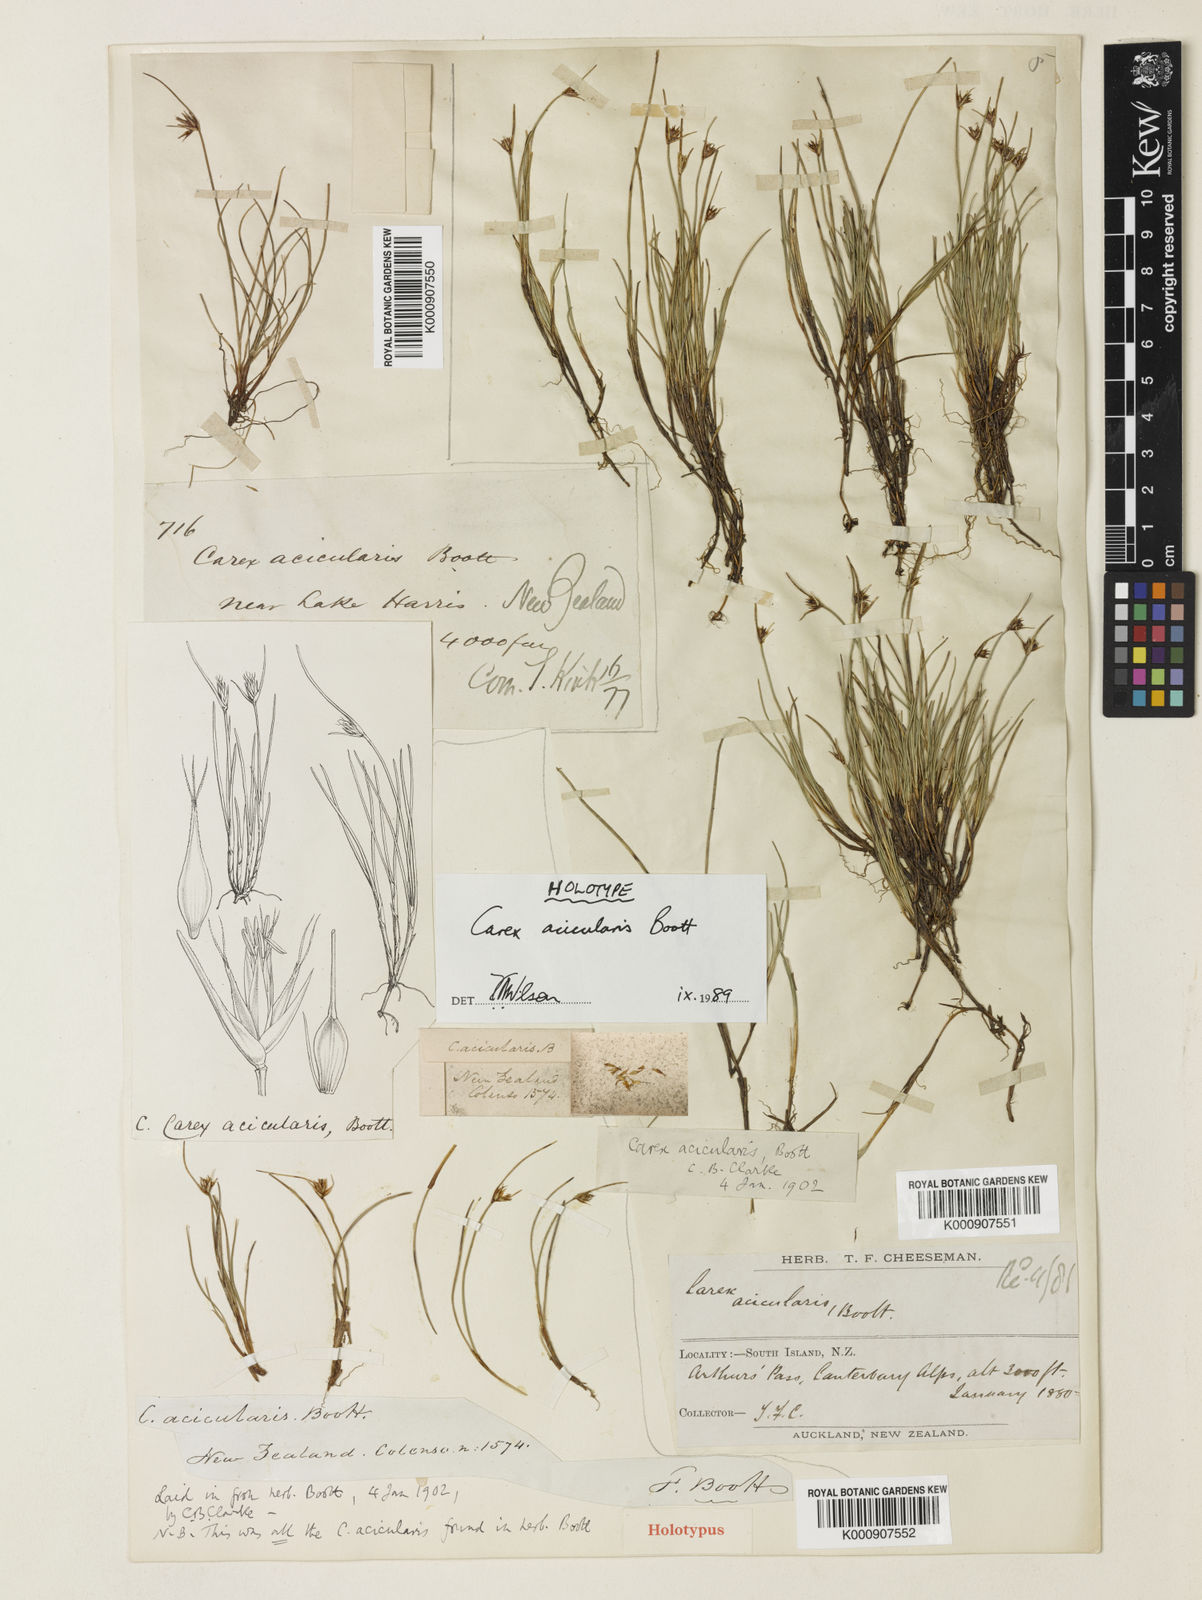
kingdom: Plantae
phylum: Tracheophyta
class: Liliopsida
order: Poales
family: Cyperaceae
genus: Carex
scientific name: Carex acicularis
